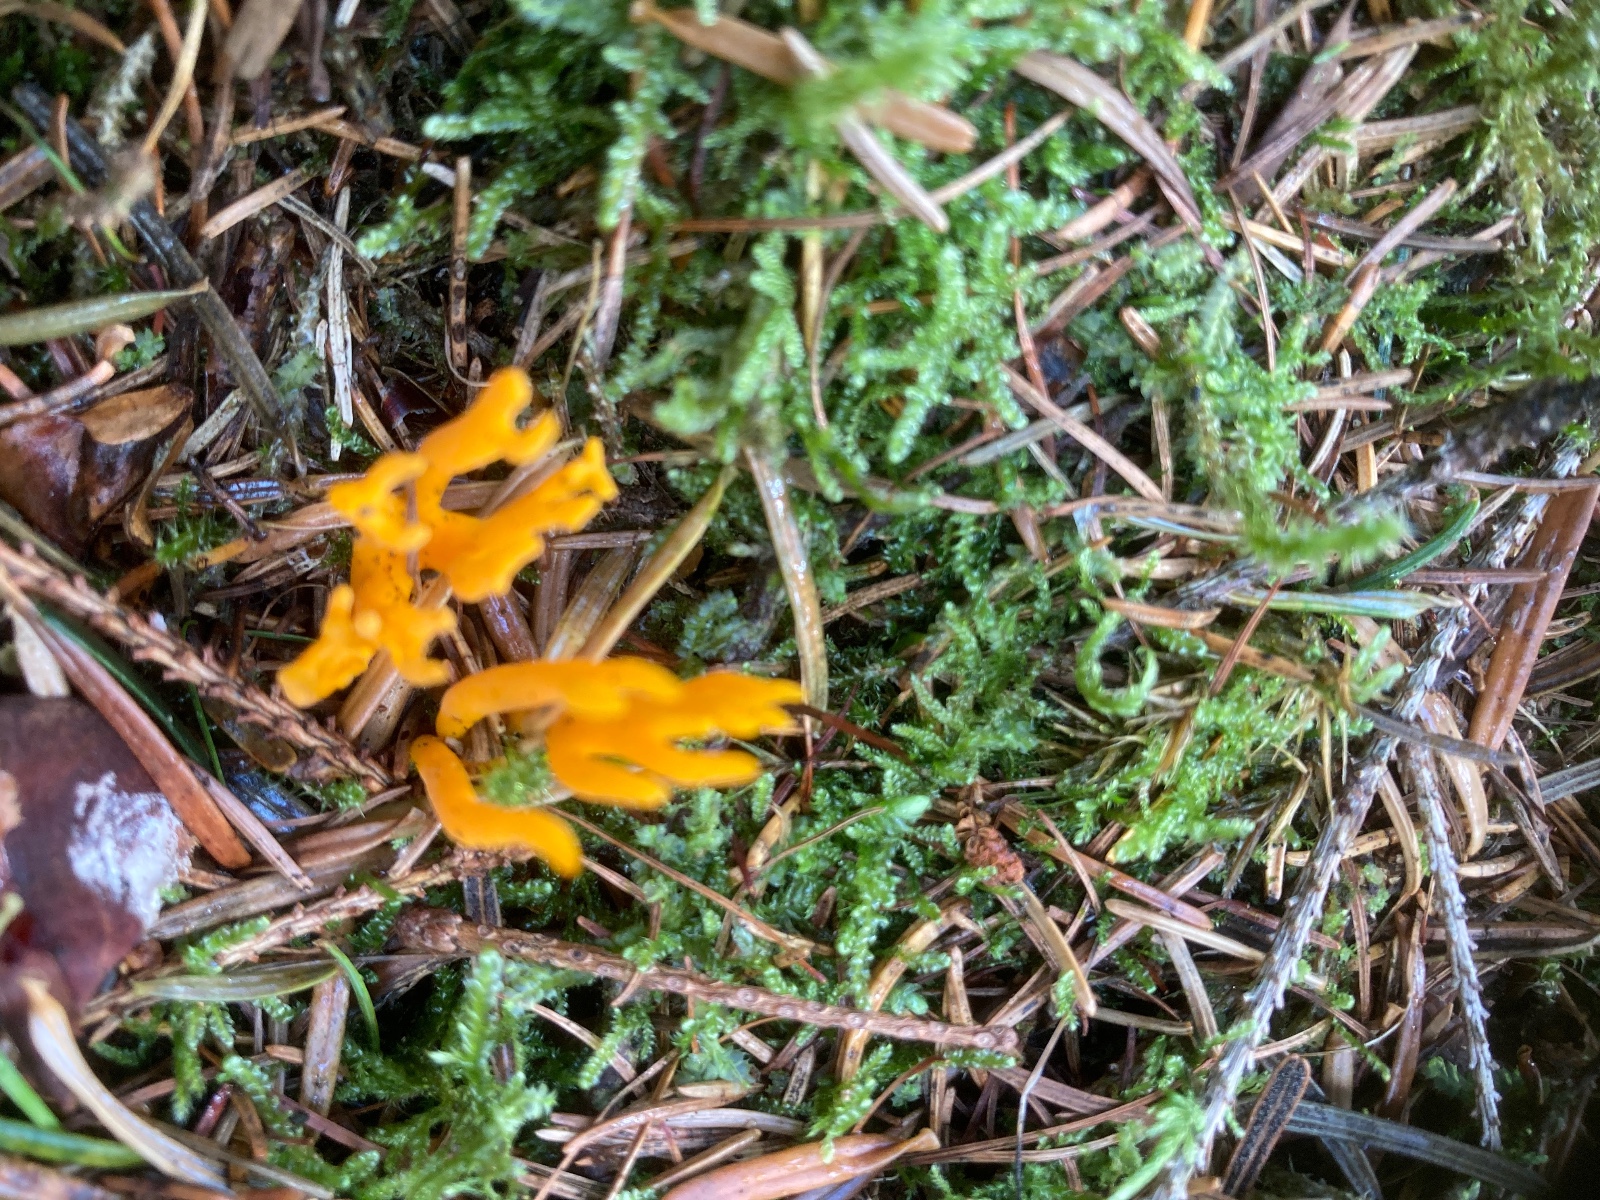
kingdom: Fungi
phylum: Basidiomycota
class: Dacrymycetes
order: Dacrymycetales
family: Dacrymycetaceae
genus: Calocera
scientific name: Calocera viscosa
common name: almindelig guldgaffel
